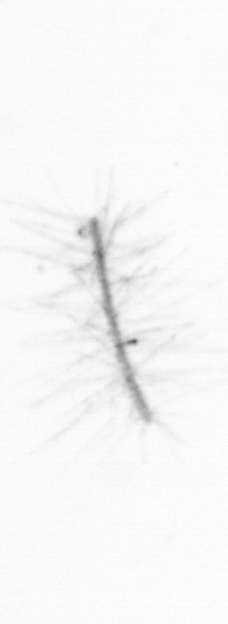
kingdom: Chromista
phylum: Ochrophyta
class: Bacillariophyceae
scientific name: Bacillariophyceae
